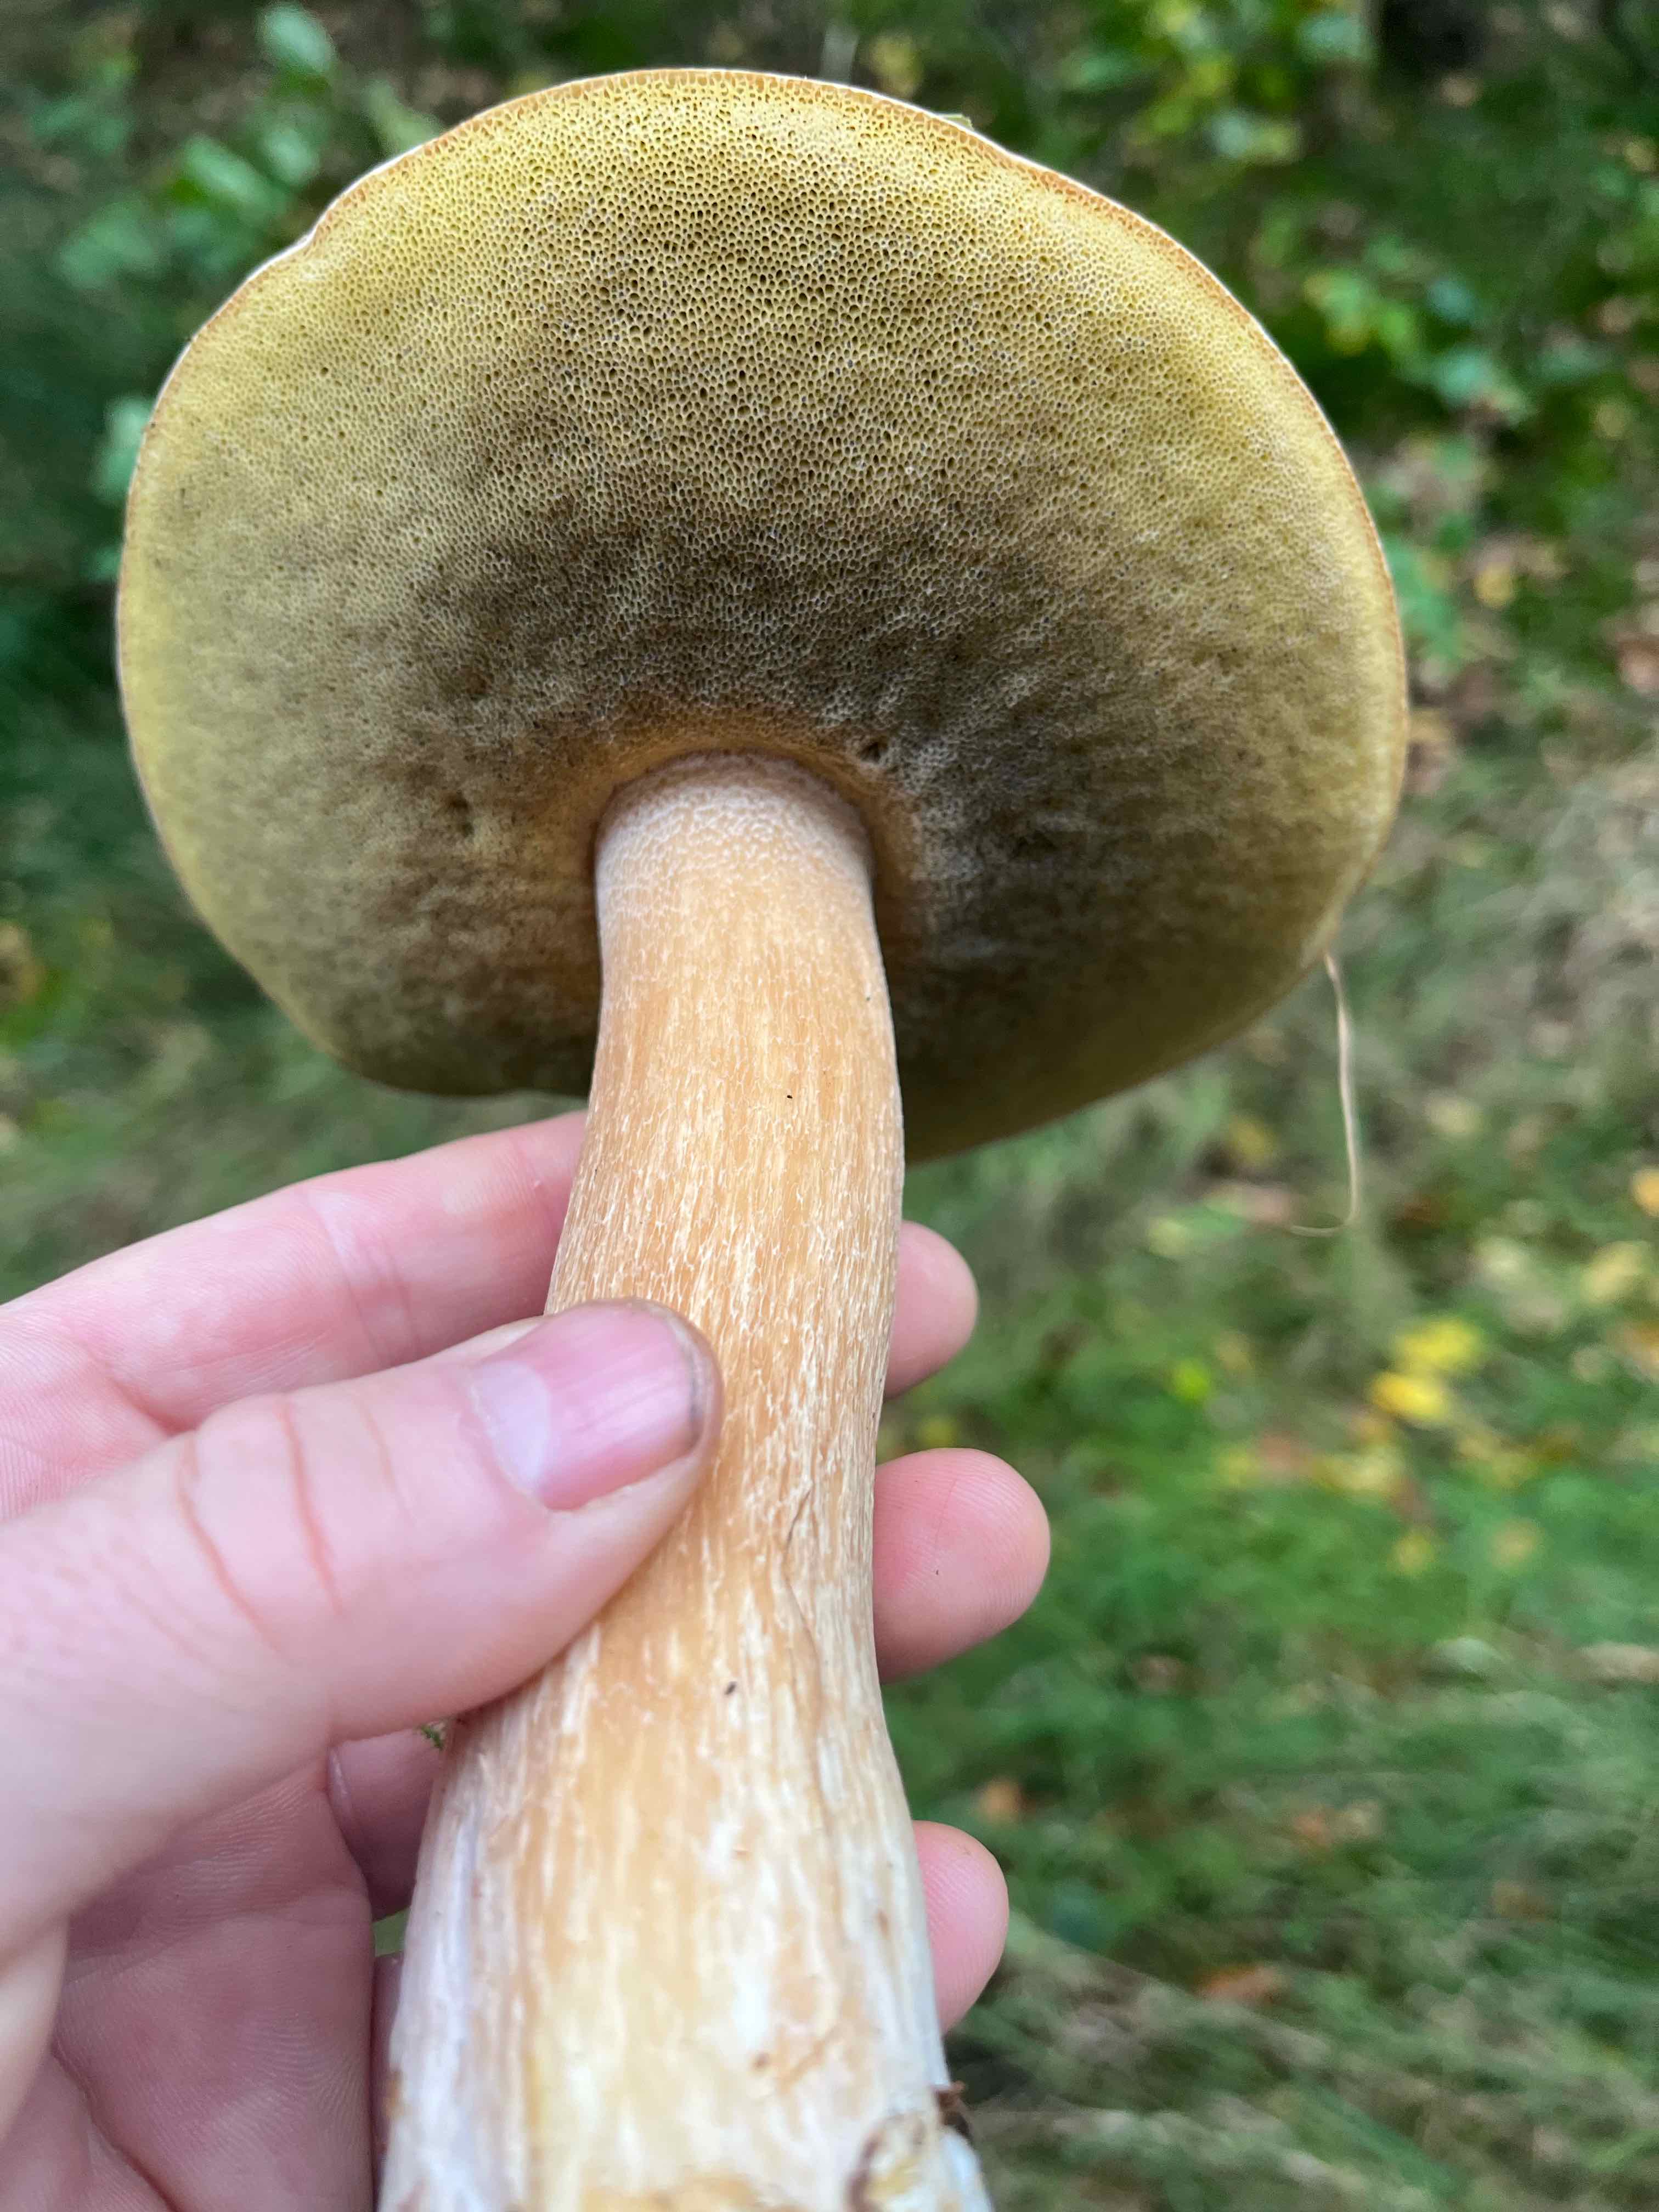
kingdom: Fungi
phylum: Basidiomycota
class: Agaricomycetes
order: Boletales
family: Boletaceae
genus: Boletus
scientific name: Boletus edulis
